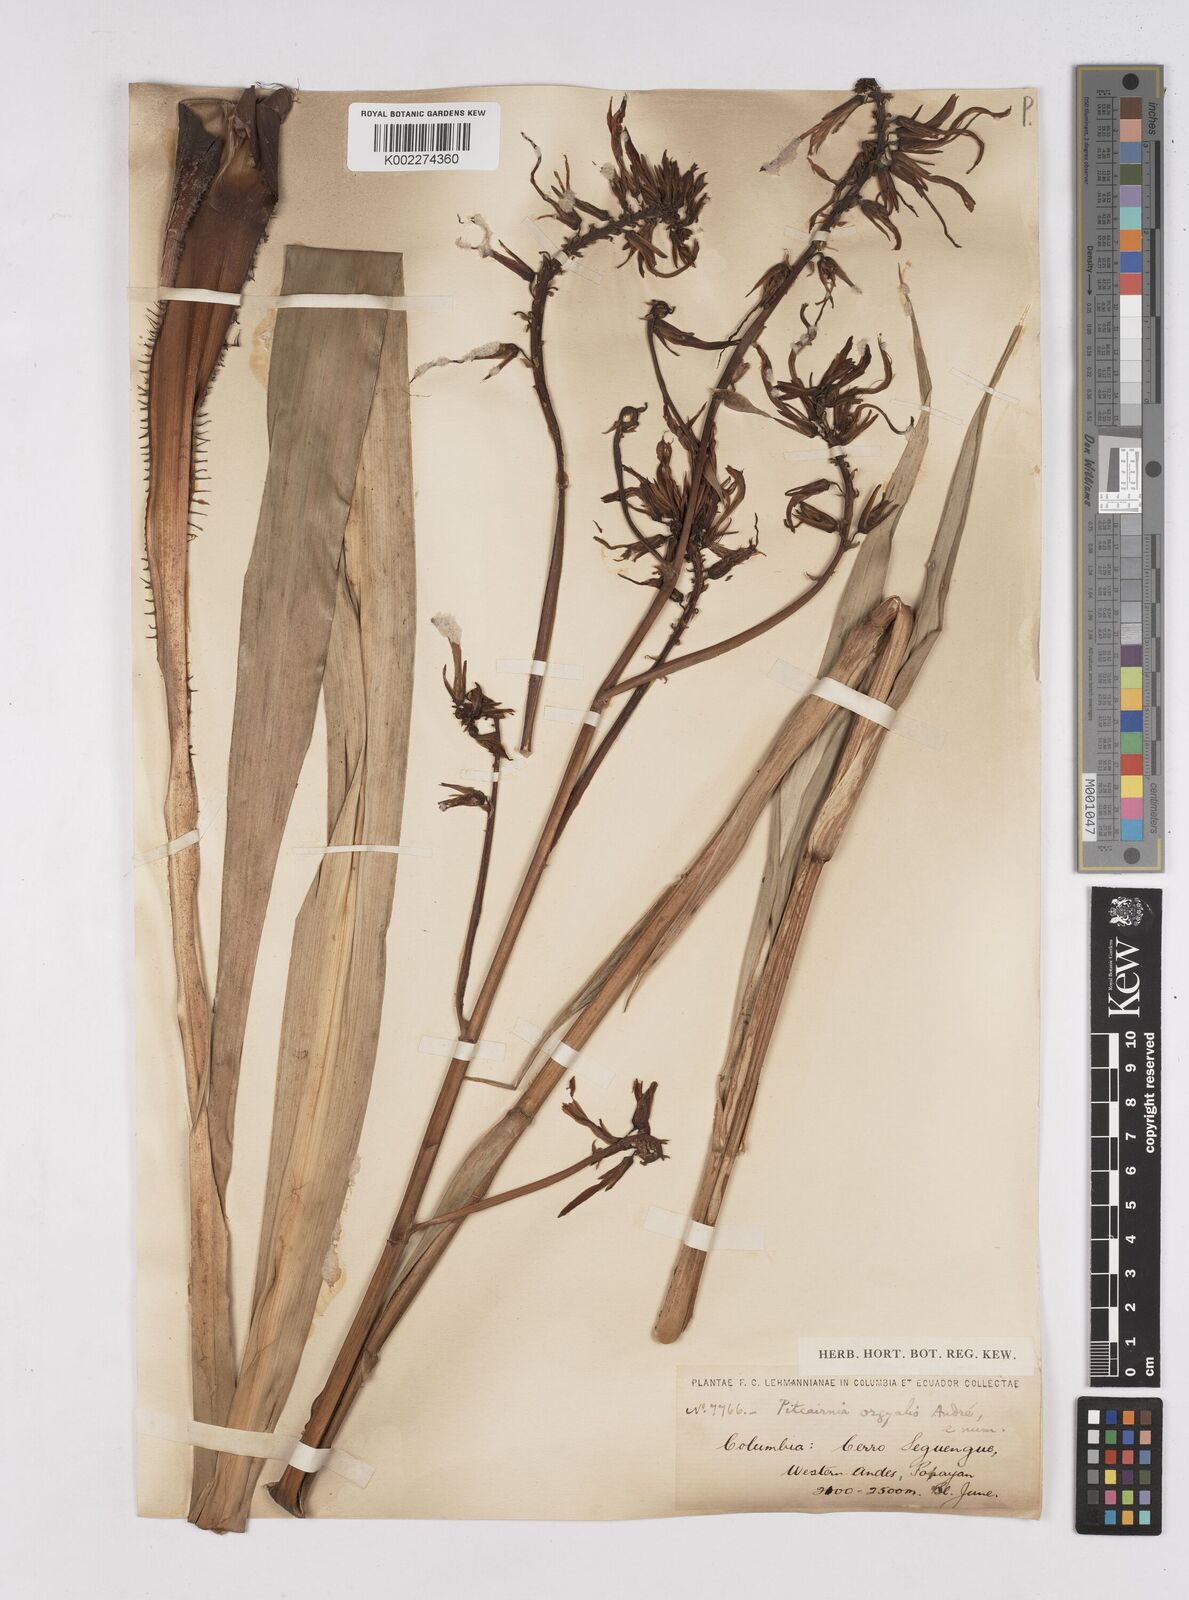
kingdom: Plantae
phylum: Tracheophyta
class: Liliopsida
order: Poales
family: Bromeliaceae
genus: Pitcairnia
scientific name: Pitcairnia
